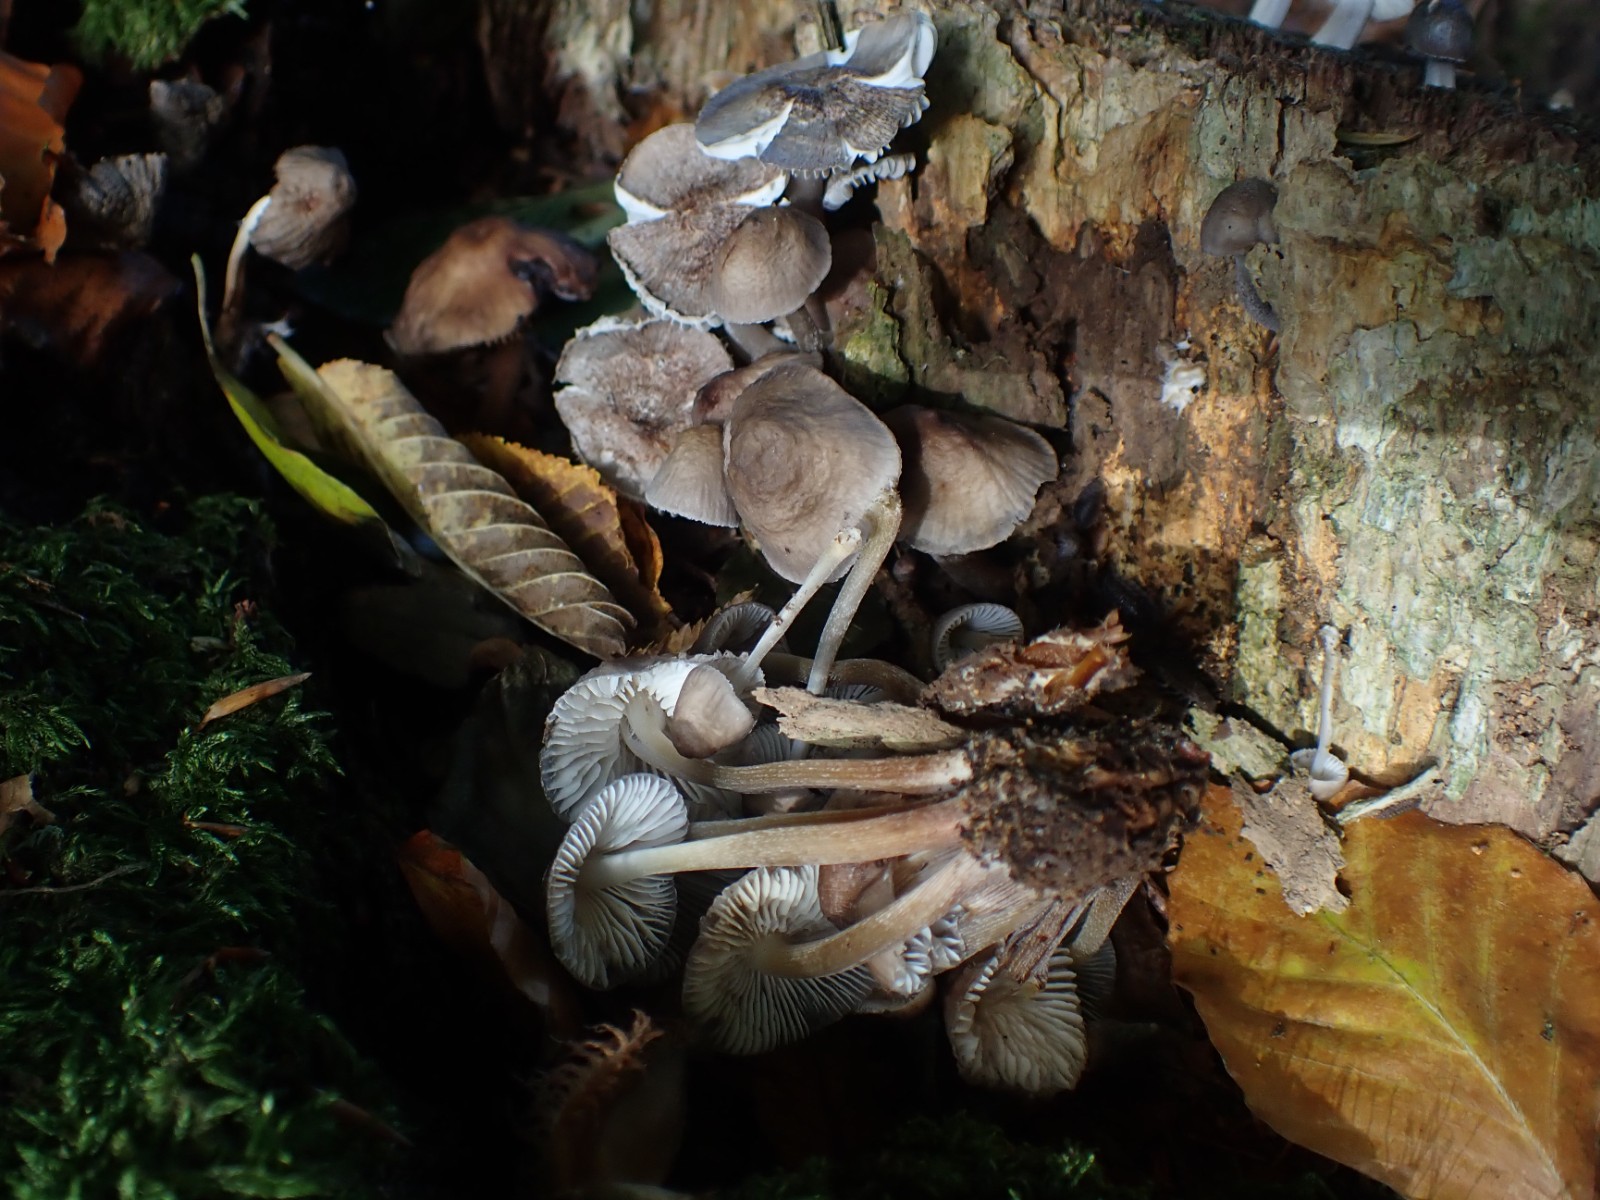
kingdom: Fungi
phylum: Basidiomycota
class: Agaricomycetes
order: Agaricales
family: Mycenaceae
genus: Mycena
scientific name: Mycena inclinata
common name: nikkende huesvamp
